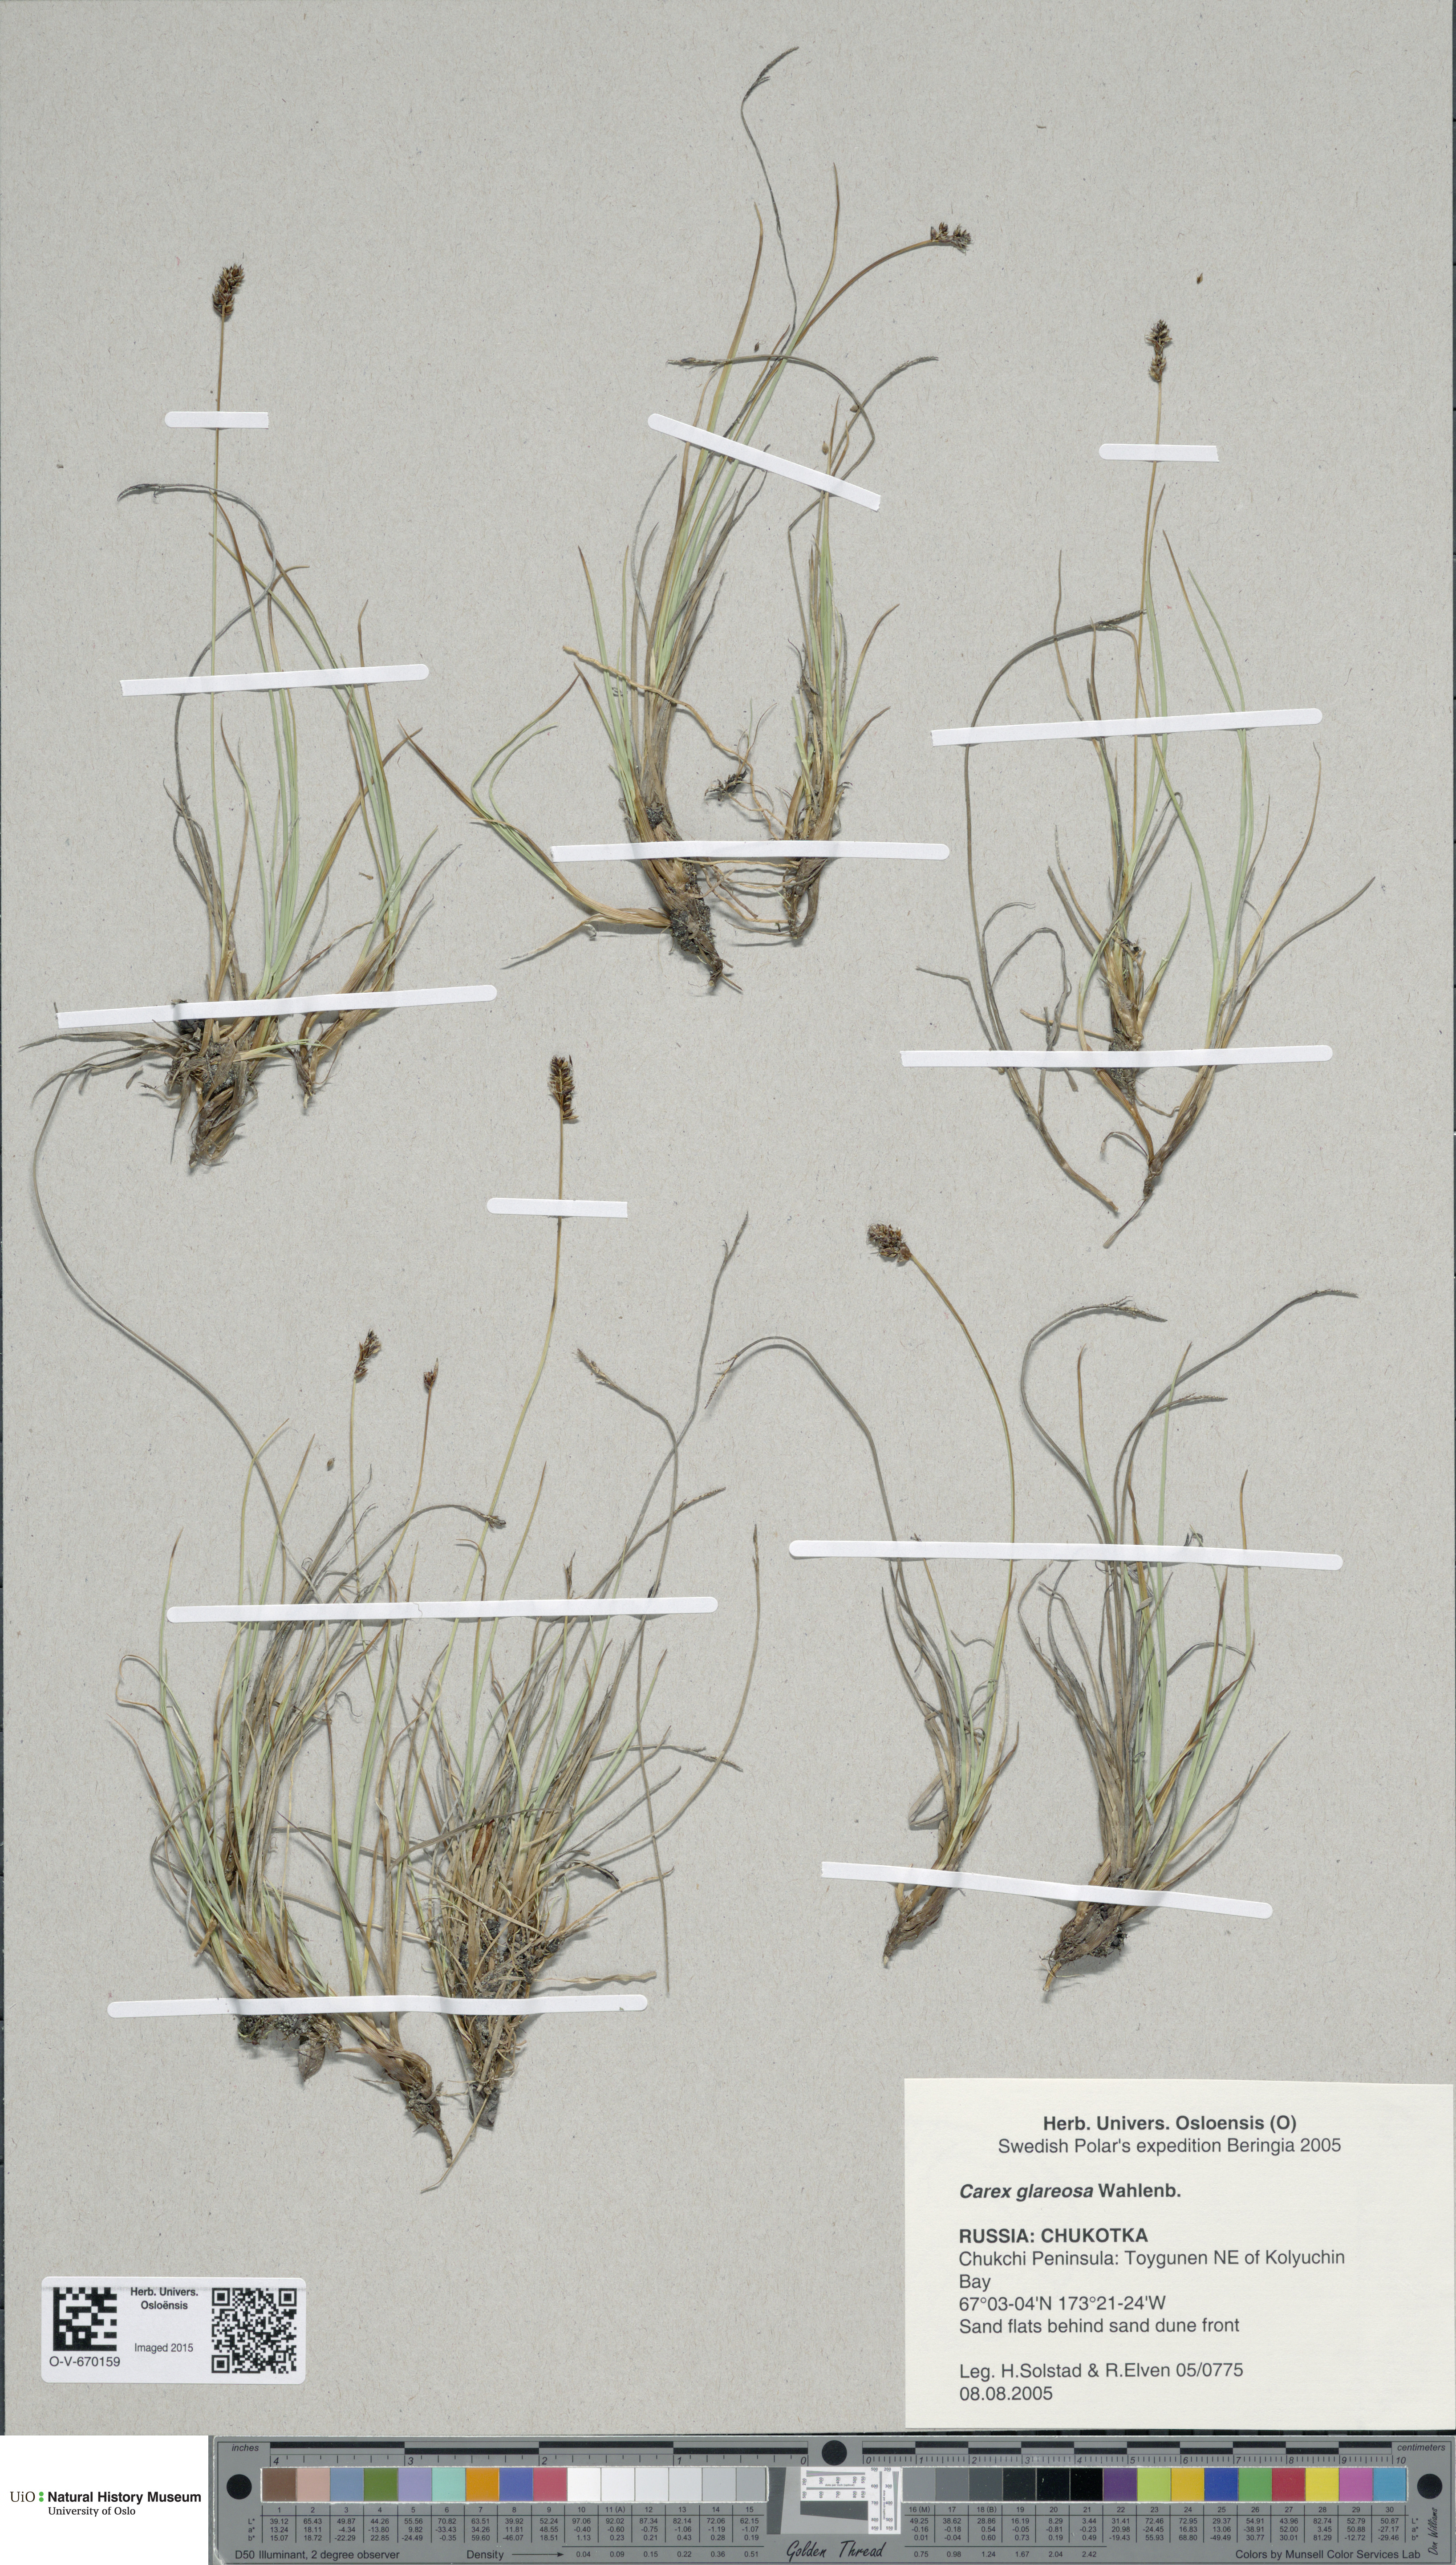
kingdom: Plantae
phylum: Tracheophyta
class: Liliopsida
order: Poales
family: Cyperaceae
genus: Carex
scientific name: Carex glareosa
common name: Clustered sedge
